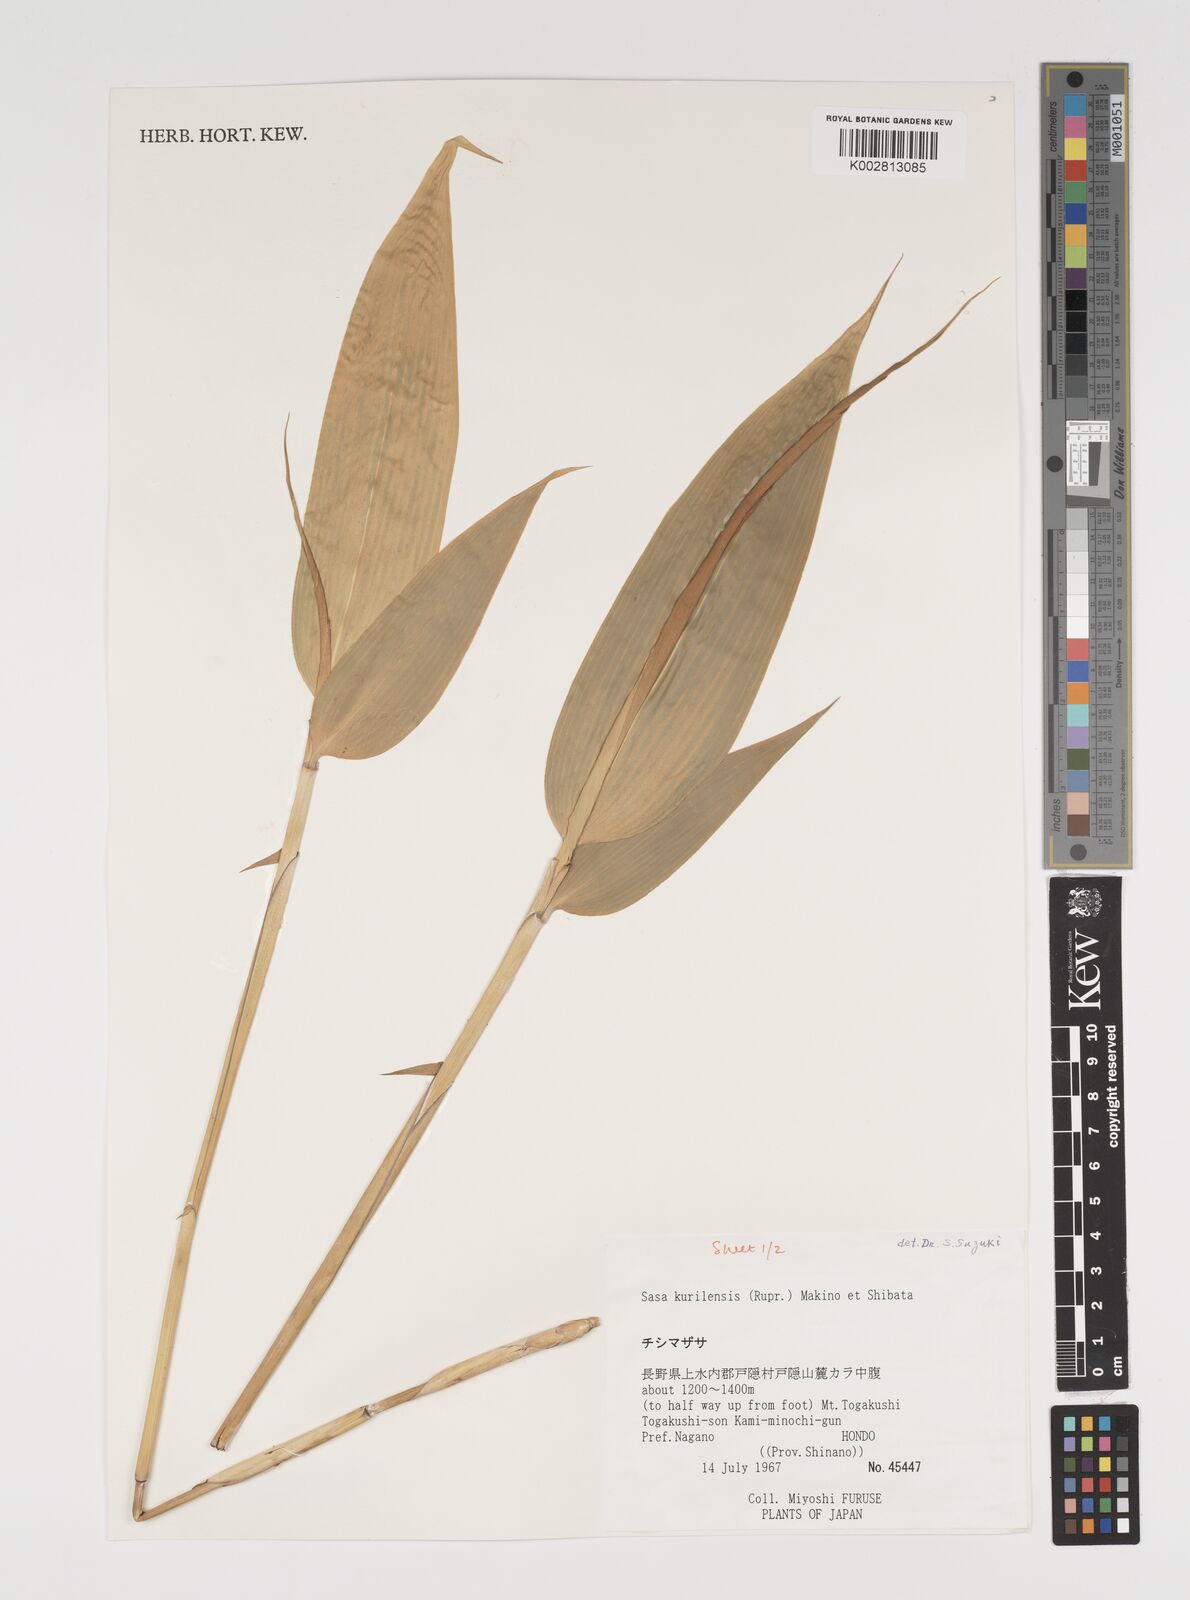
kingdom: Plantae
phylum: Tracheophyta
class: Liliopsida
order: Poales
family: Poaceae
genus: Sasa
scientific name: Sasa kurilensis
